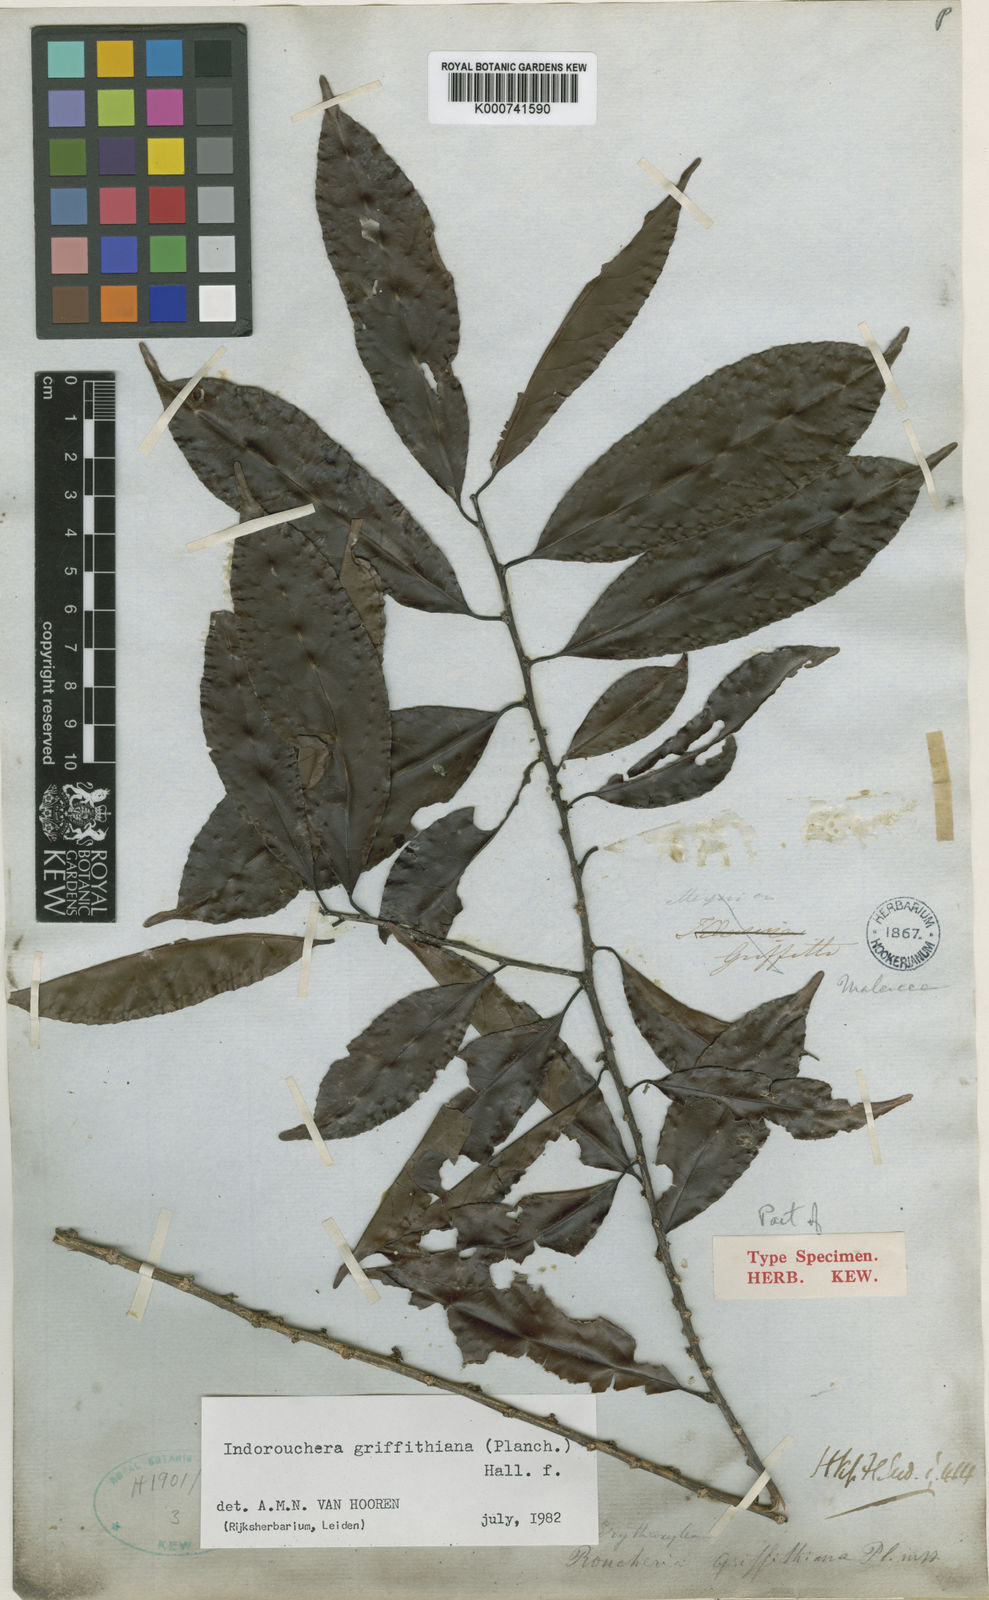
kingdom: Plantae
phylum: Tracheophyta
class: Magnoliopsida
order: Malpighiales
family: Linaceae
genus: Indorouchera
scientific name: Indorouchera griffithiana
